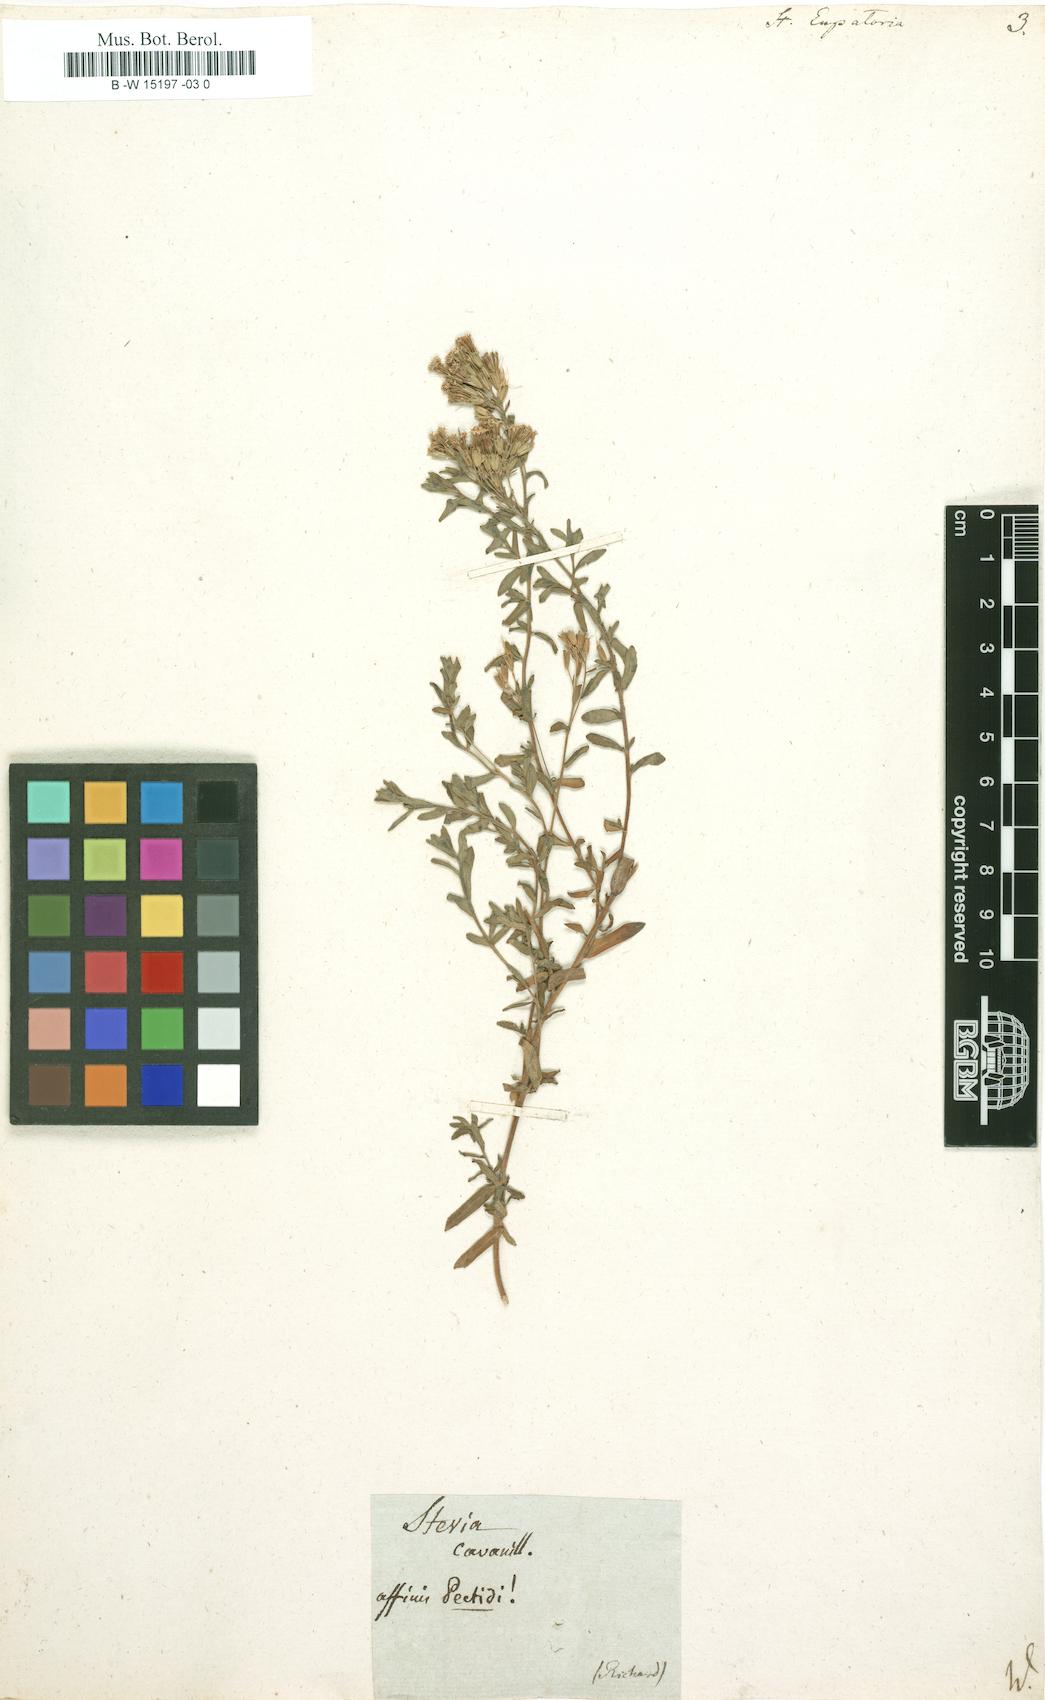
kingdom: Plantae
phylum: Tracheophyta
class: Magnoliopsida
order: Asterales
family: Asteraceae
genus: Stevia
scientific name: Stevia eupatoria
